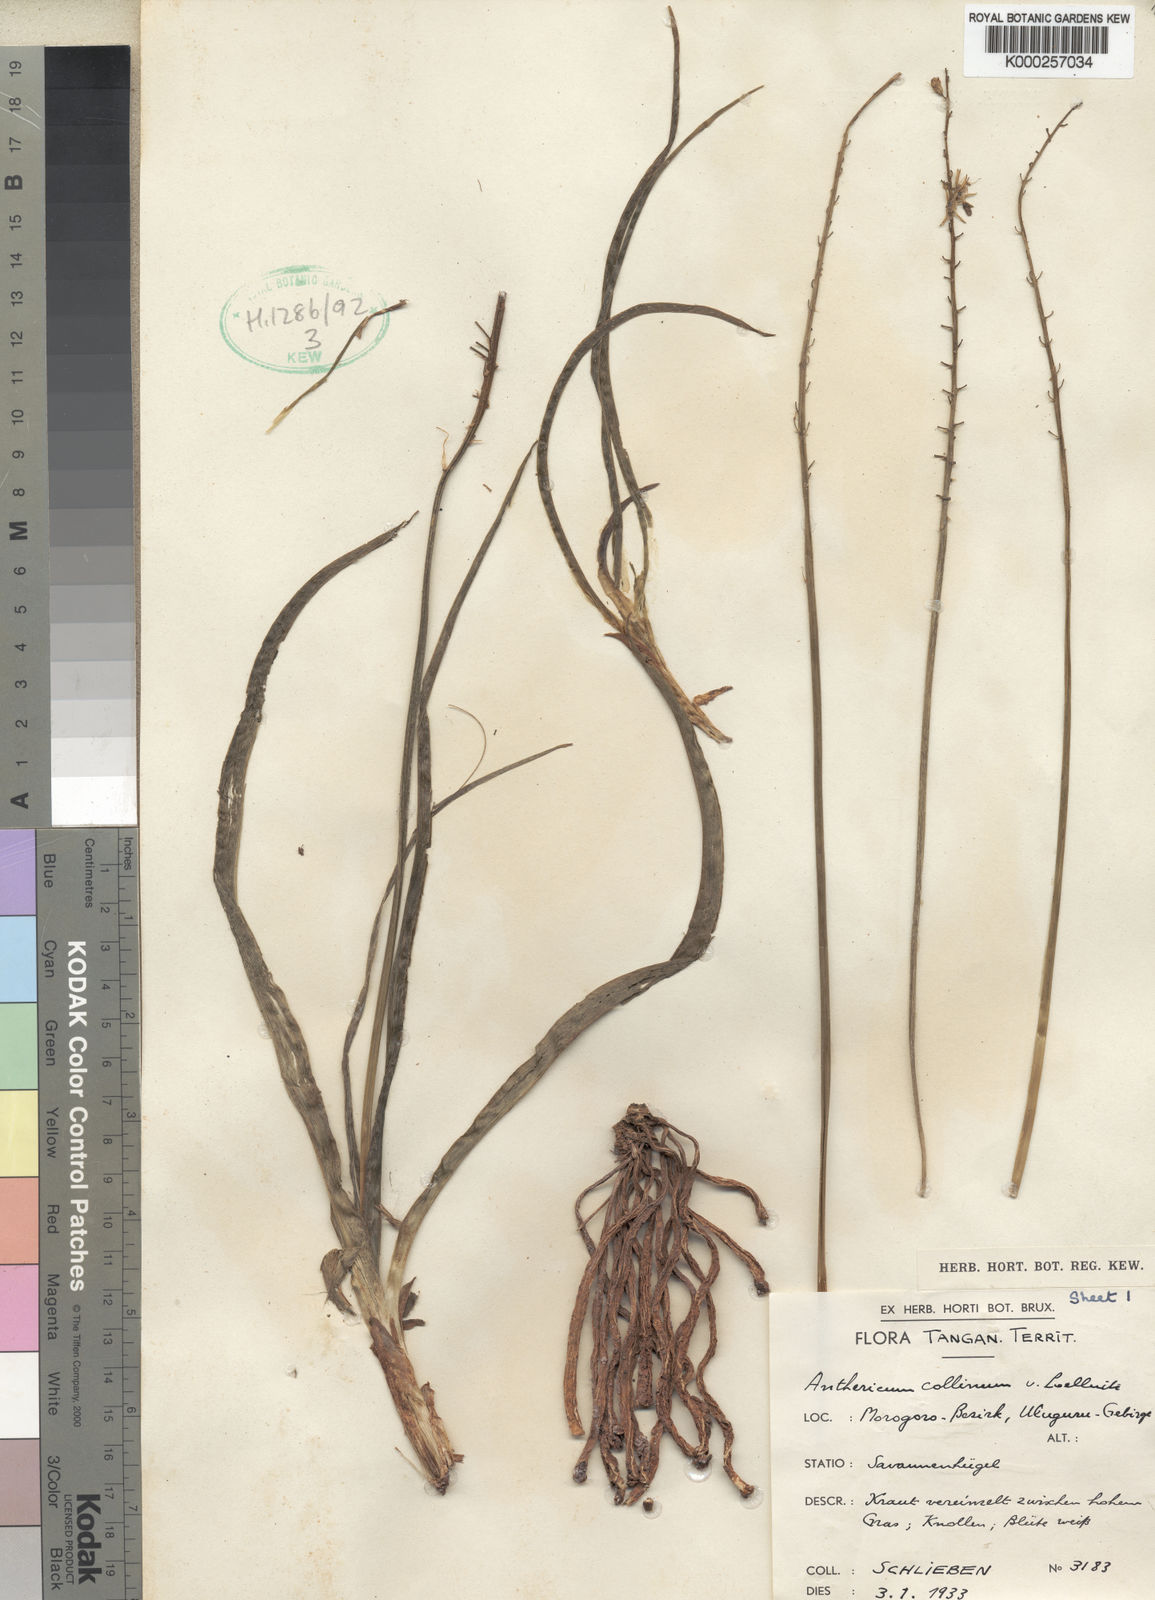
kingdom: Plantae
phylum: Tracheophyta
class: Liliopsida
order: Asparagales
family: Asparagaceae
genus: Chlorophytum
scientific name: Chlorophytum collinum
